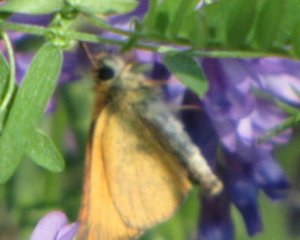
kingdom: Animalia
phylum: Arthropoda
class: Insecta
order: Lepidoptera
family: Hesperiidae
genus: Thymelicus
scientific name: Thymelicus lineola
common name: European Skipper
